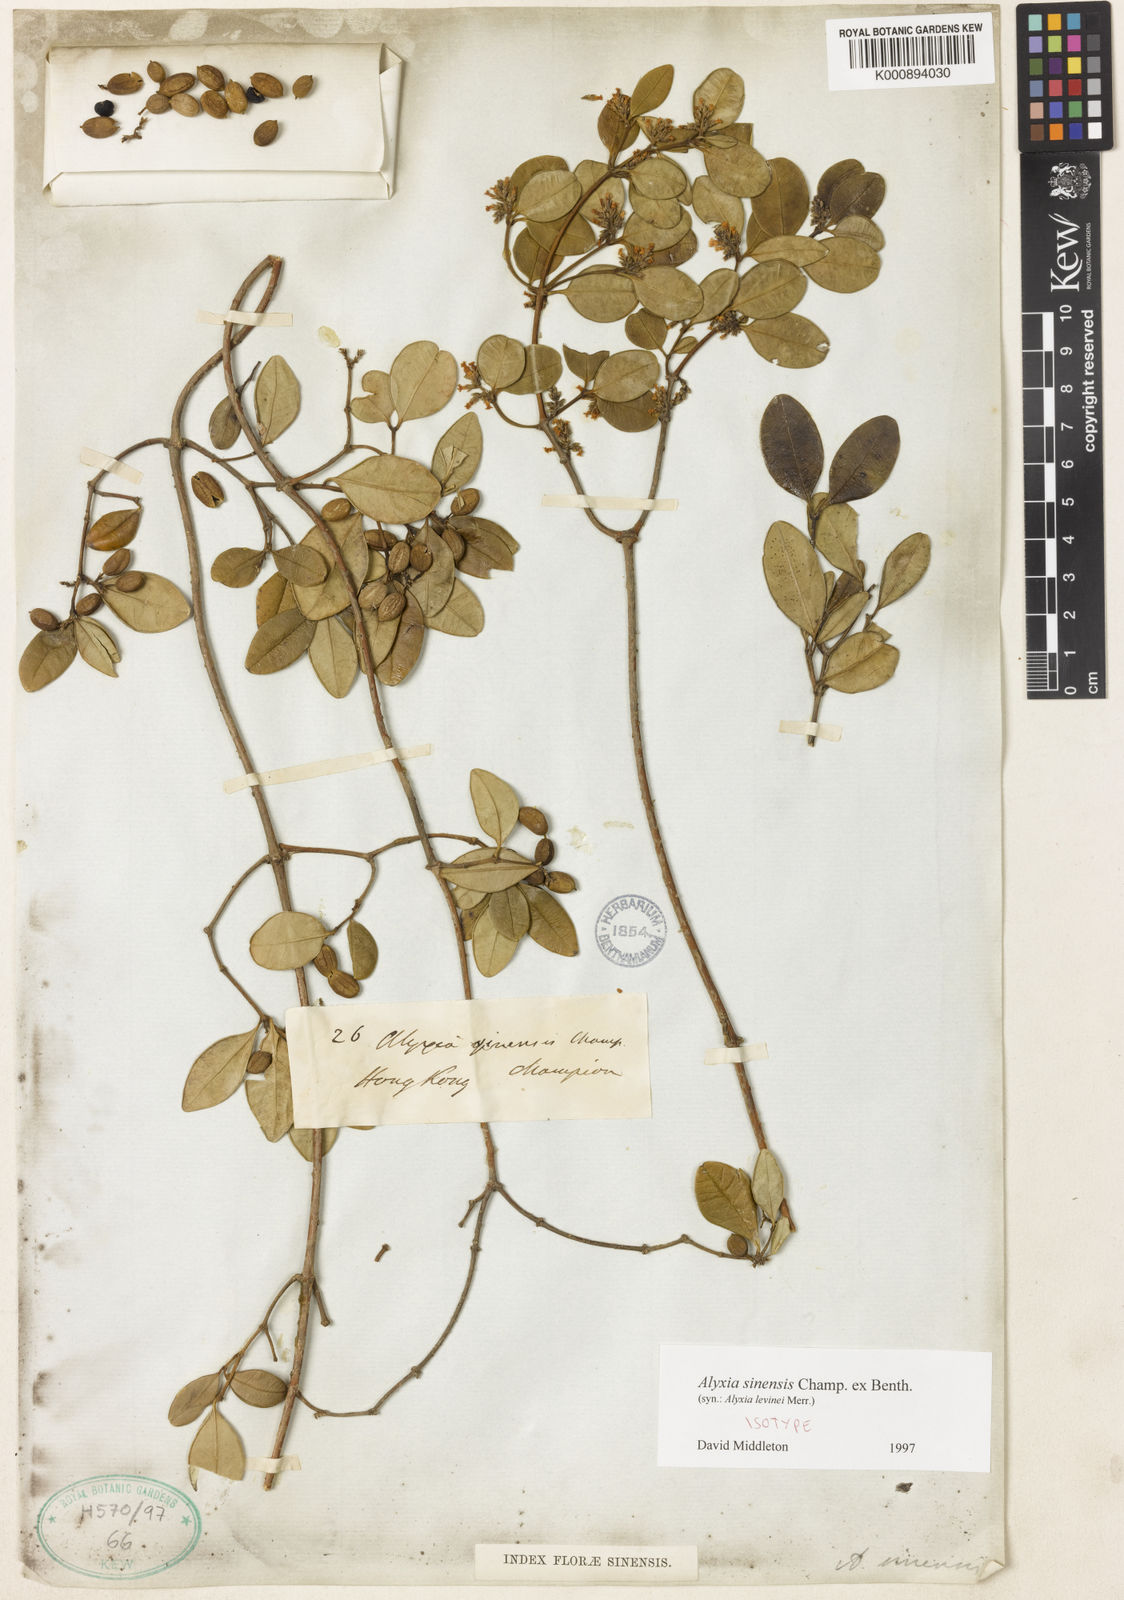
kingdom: Plantae
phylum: Tracheophyta
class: Magnoliopsida
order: Gentianales
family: Apocynaceae
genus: Alyxia
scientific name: Alyxia sinensis
